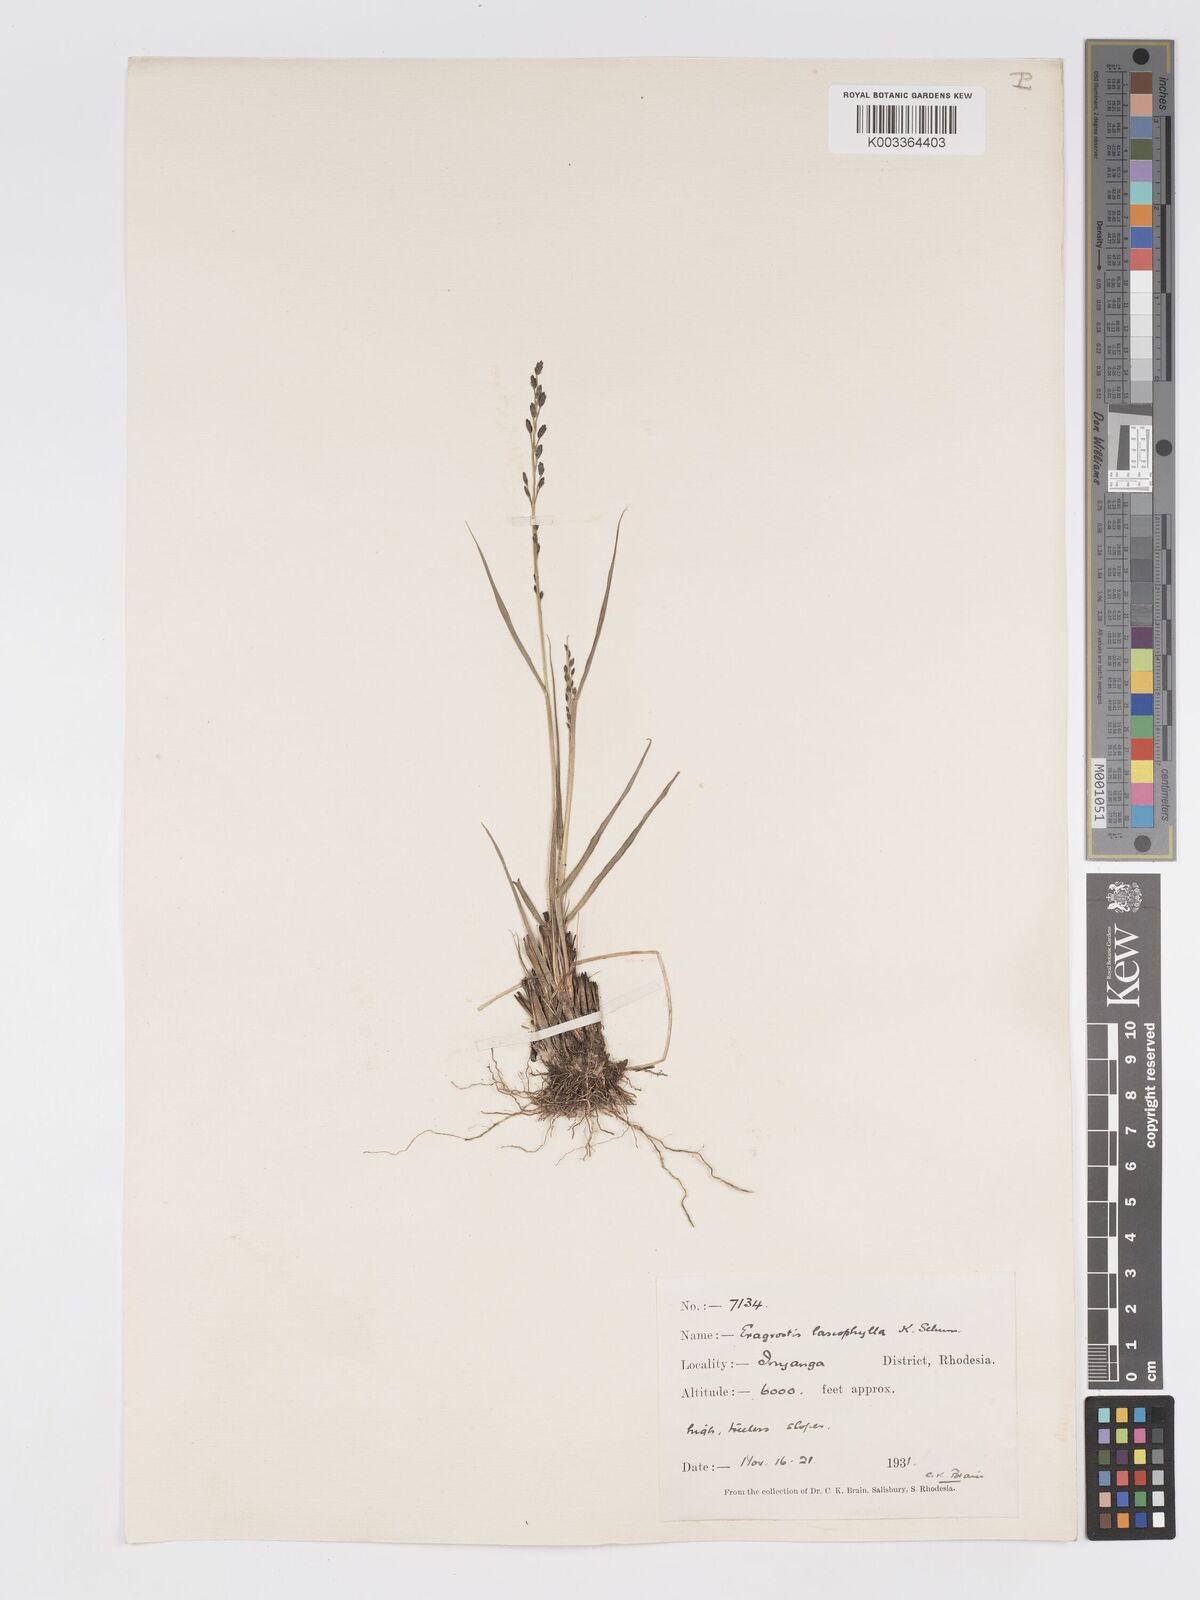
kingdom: Plantae
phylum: Tracheophyta
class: Liliopsida
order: Poales
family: Poaceae
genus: Eragrostis
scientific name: Eragrostis racemosa
